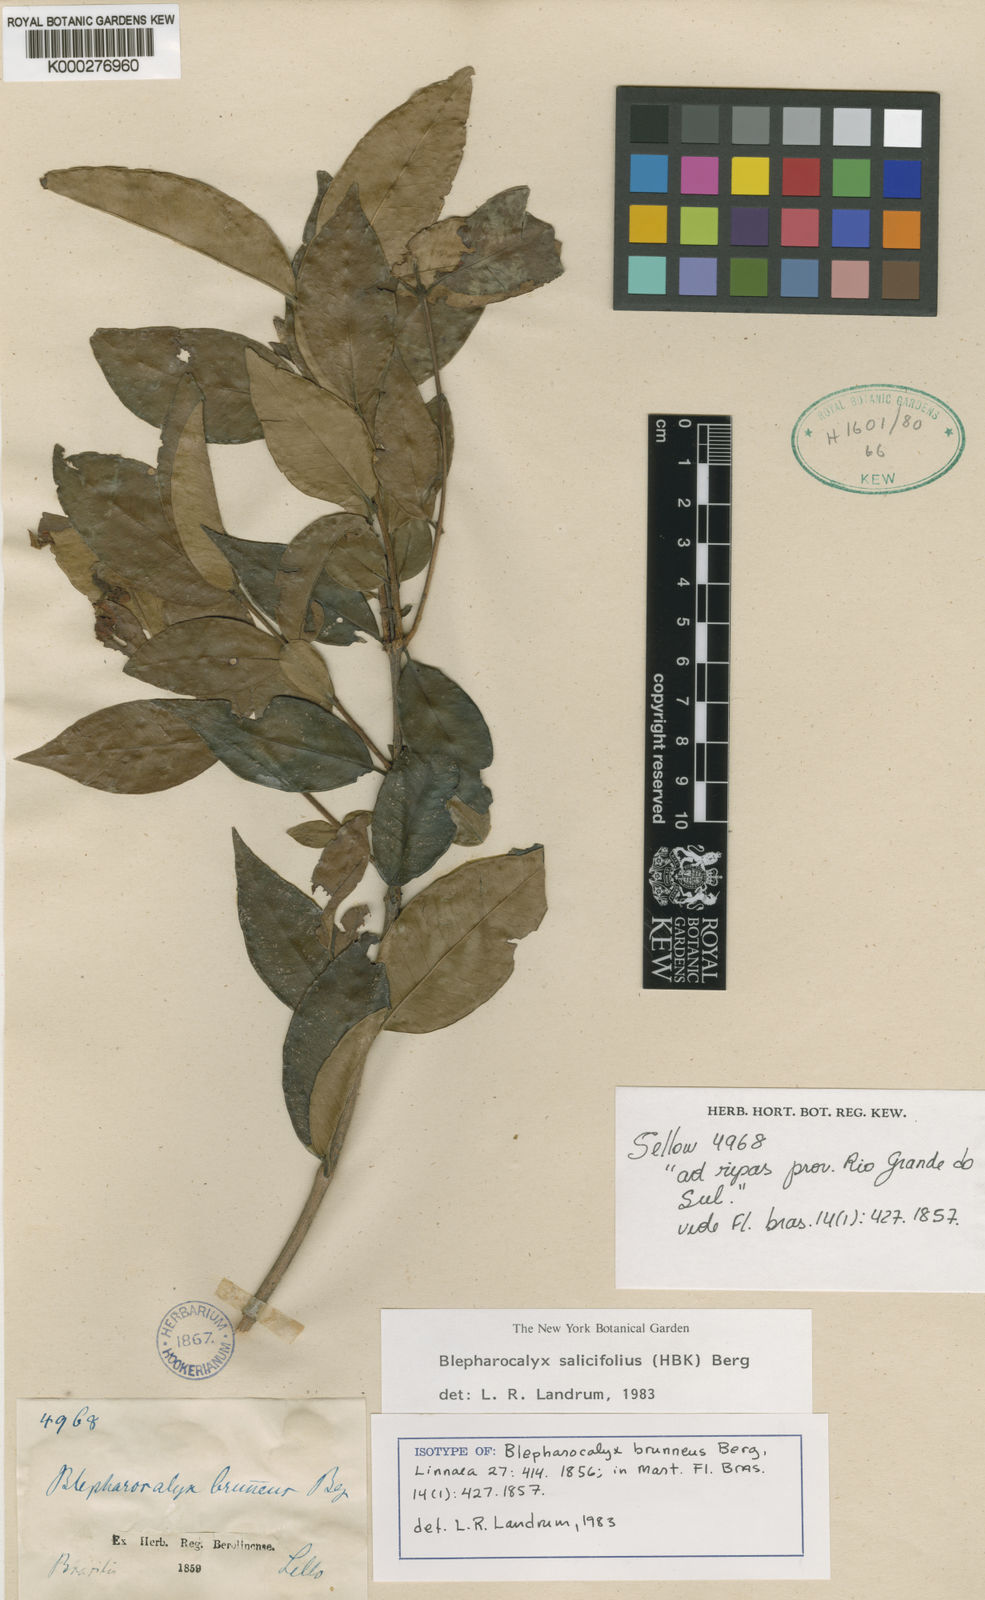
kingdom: Plantae
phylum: Tracheophyta
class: Magnoliopsida
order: Myrtales
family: Myrtaceae
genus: Blepharocalyx
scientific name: Blepharocalyx salicifolius
